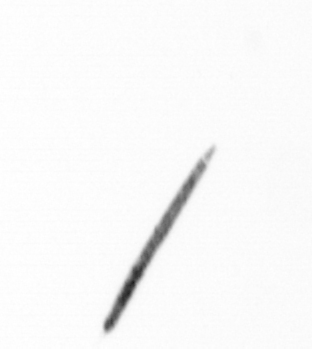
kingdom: Bacteria
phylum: Cyanobacteria
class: Cyanobacteriia
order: Cyanobacteriales
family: Microcoleaceae
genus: Trichodesmium
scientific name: Trichodesmium
